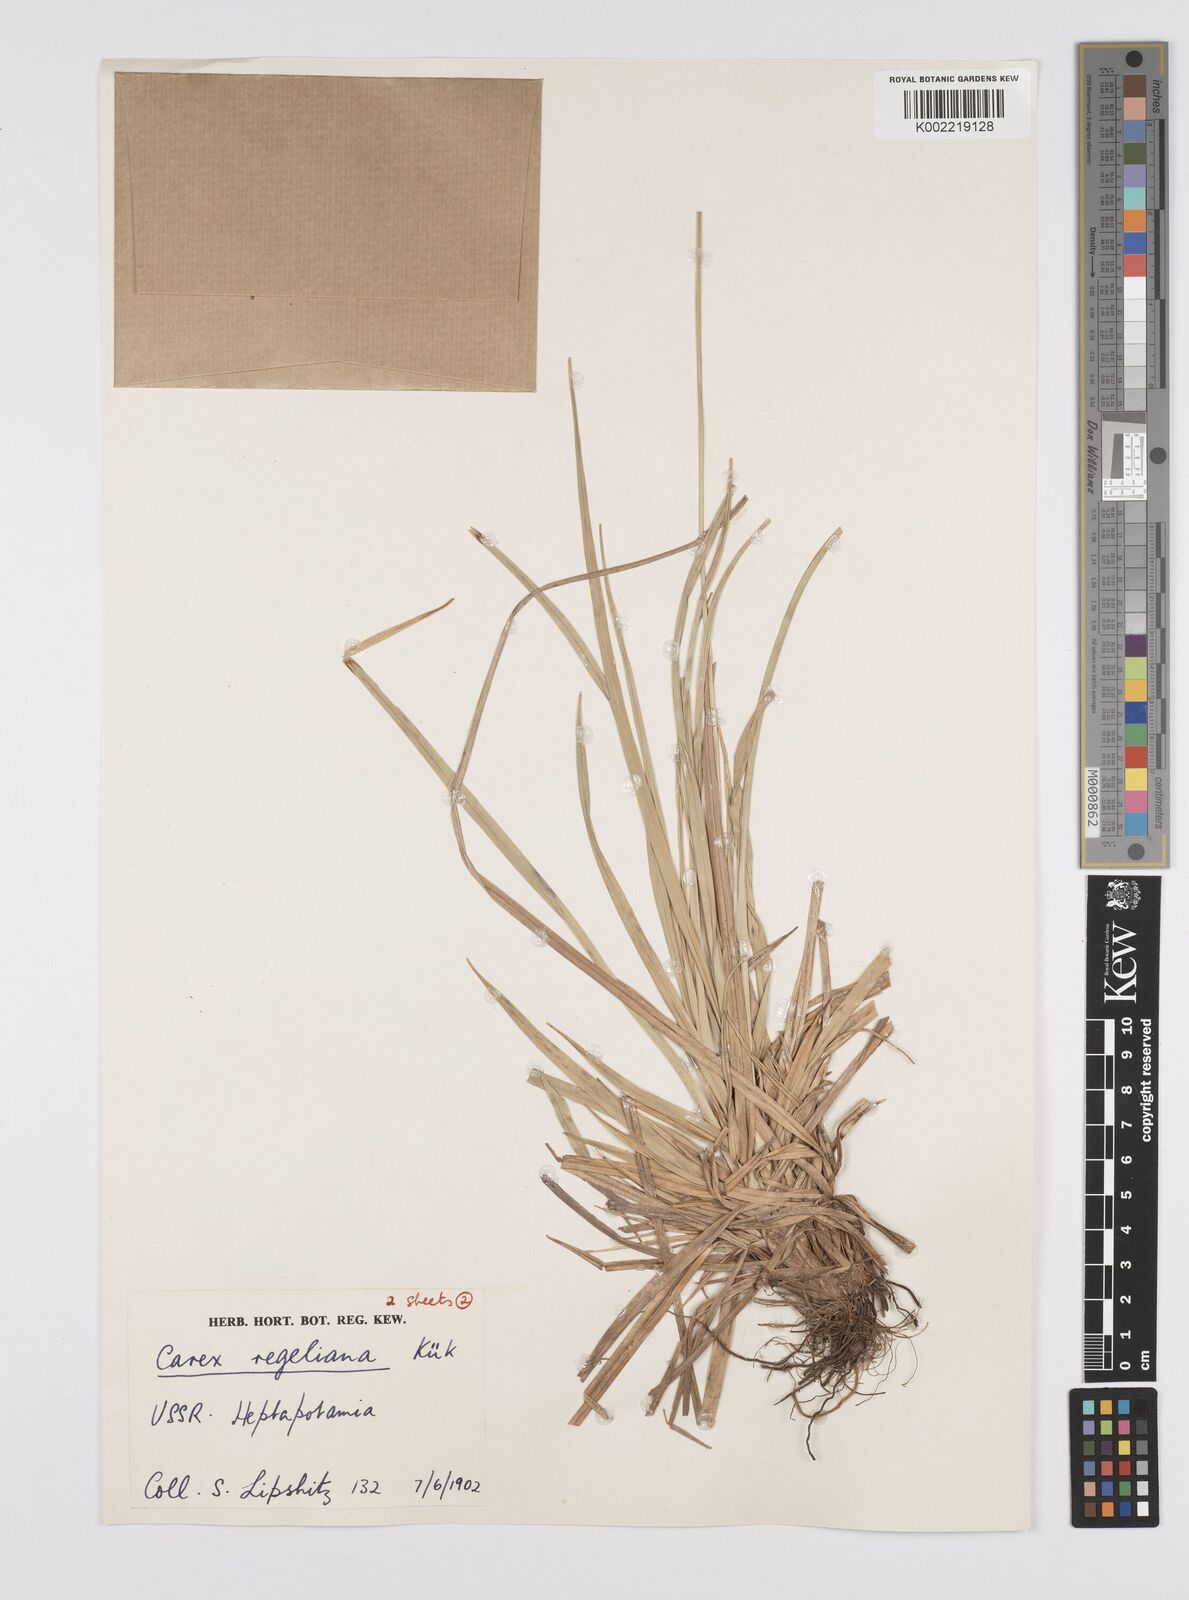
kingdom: Plantae
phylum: Tracheophyta
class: Liliopsida
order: Poales
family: Cyperaceae
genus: Carex
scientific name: Carex regeliana
